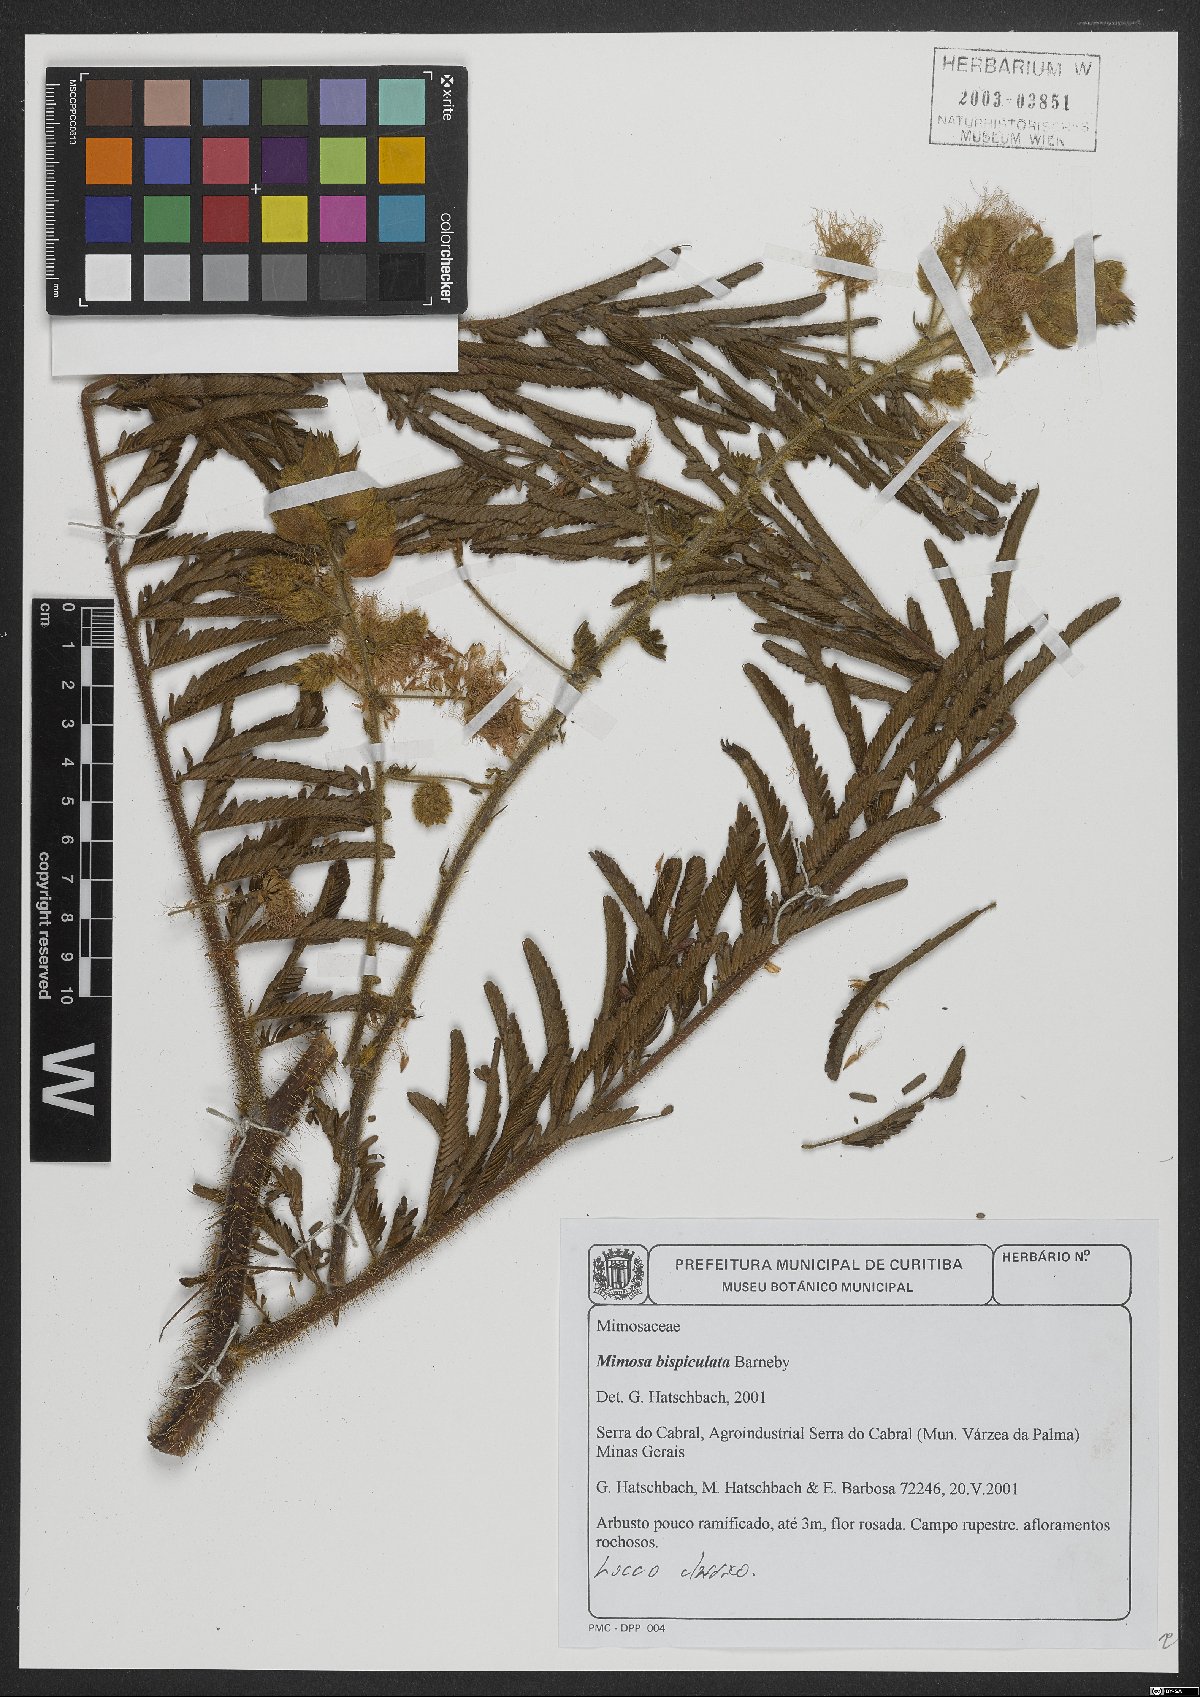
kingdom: Plantae
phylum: Tracheophyta
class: Magnoliopsida
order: Fabales
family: Fabaceae
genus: Mimosa
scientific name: Mimosa bispiculata
